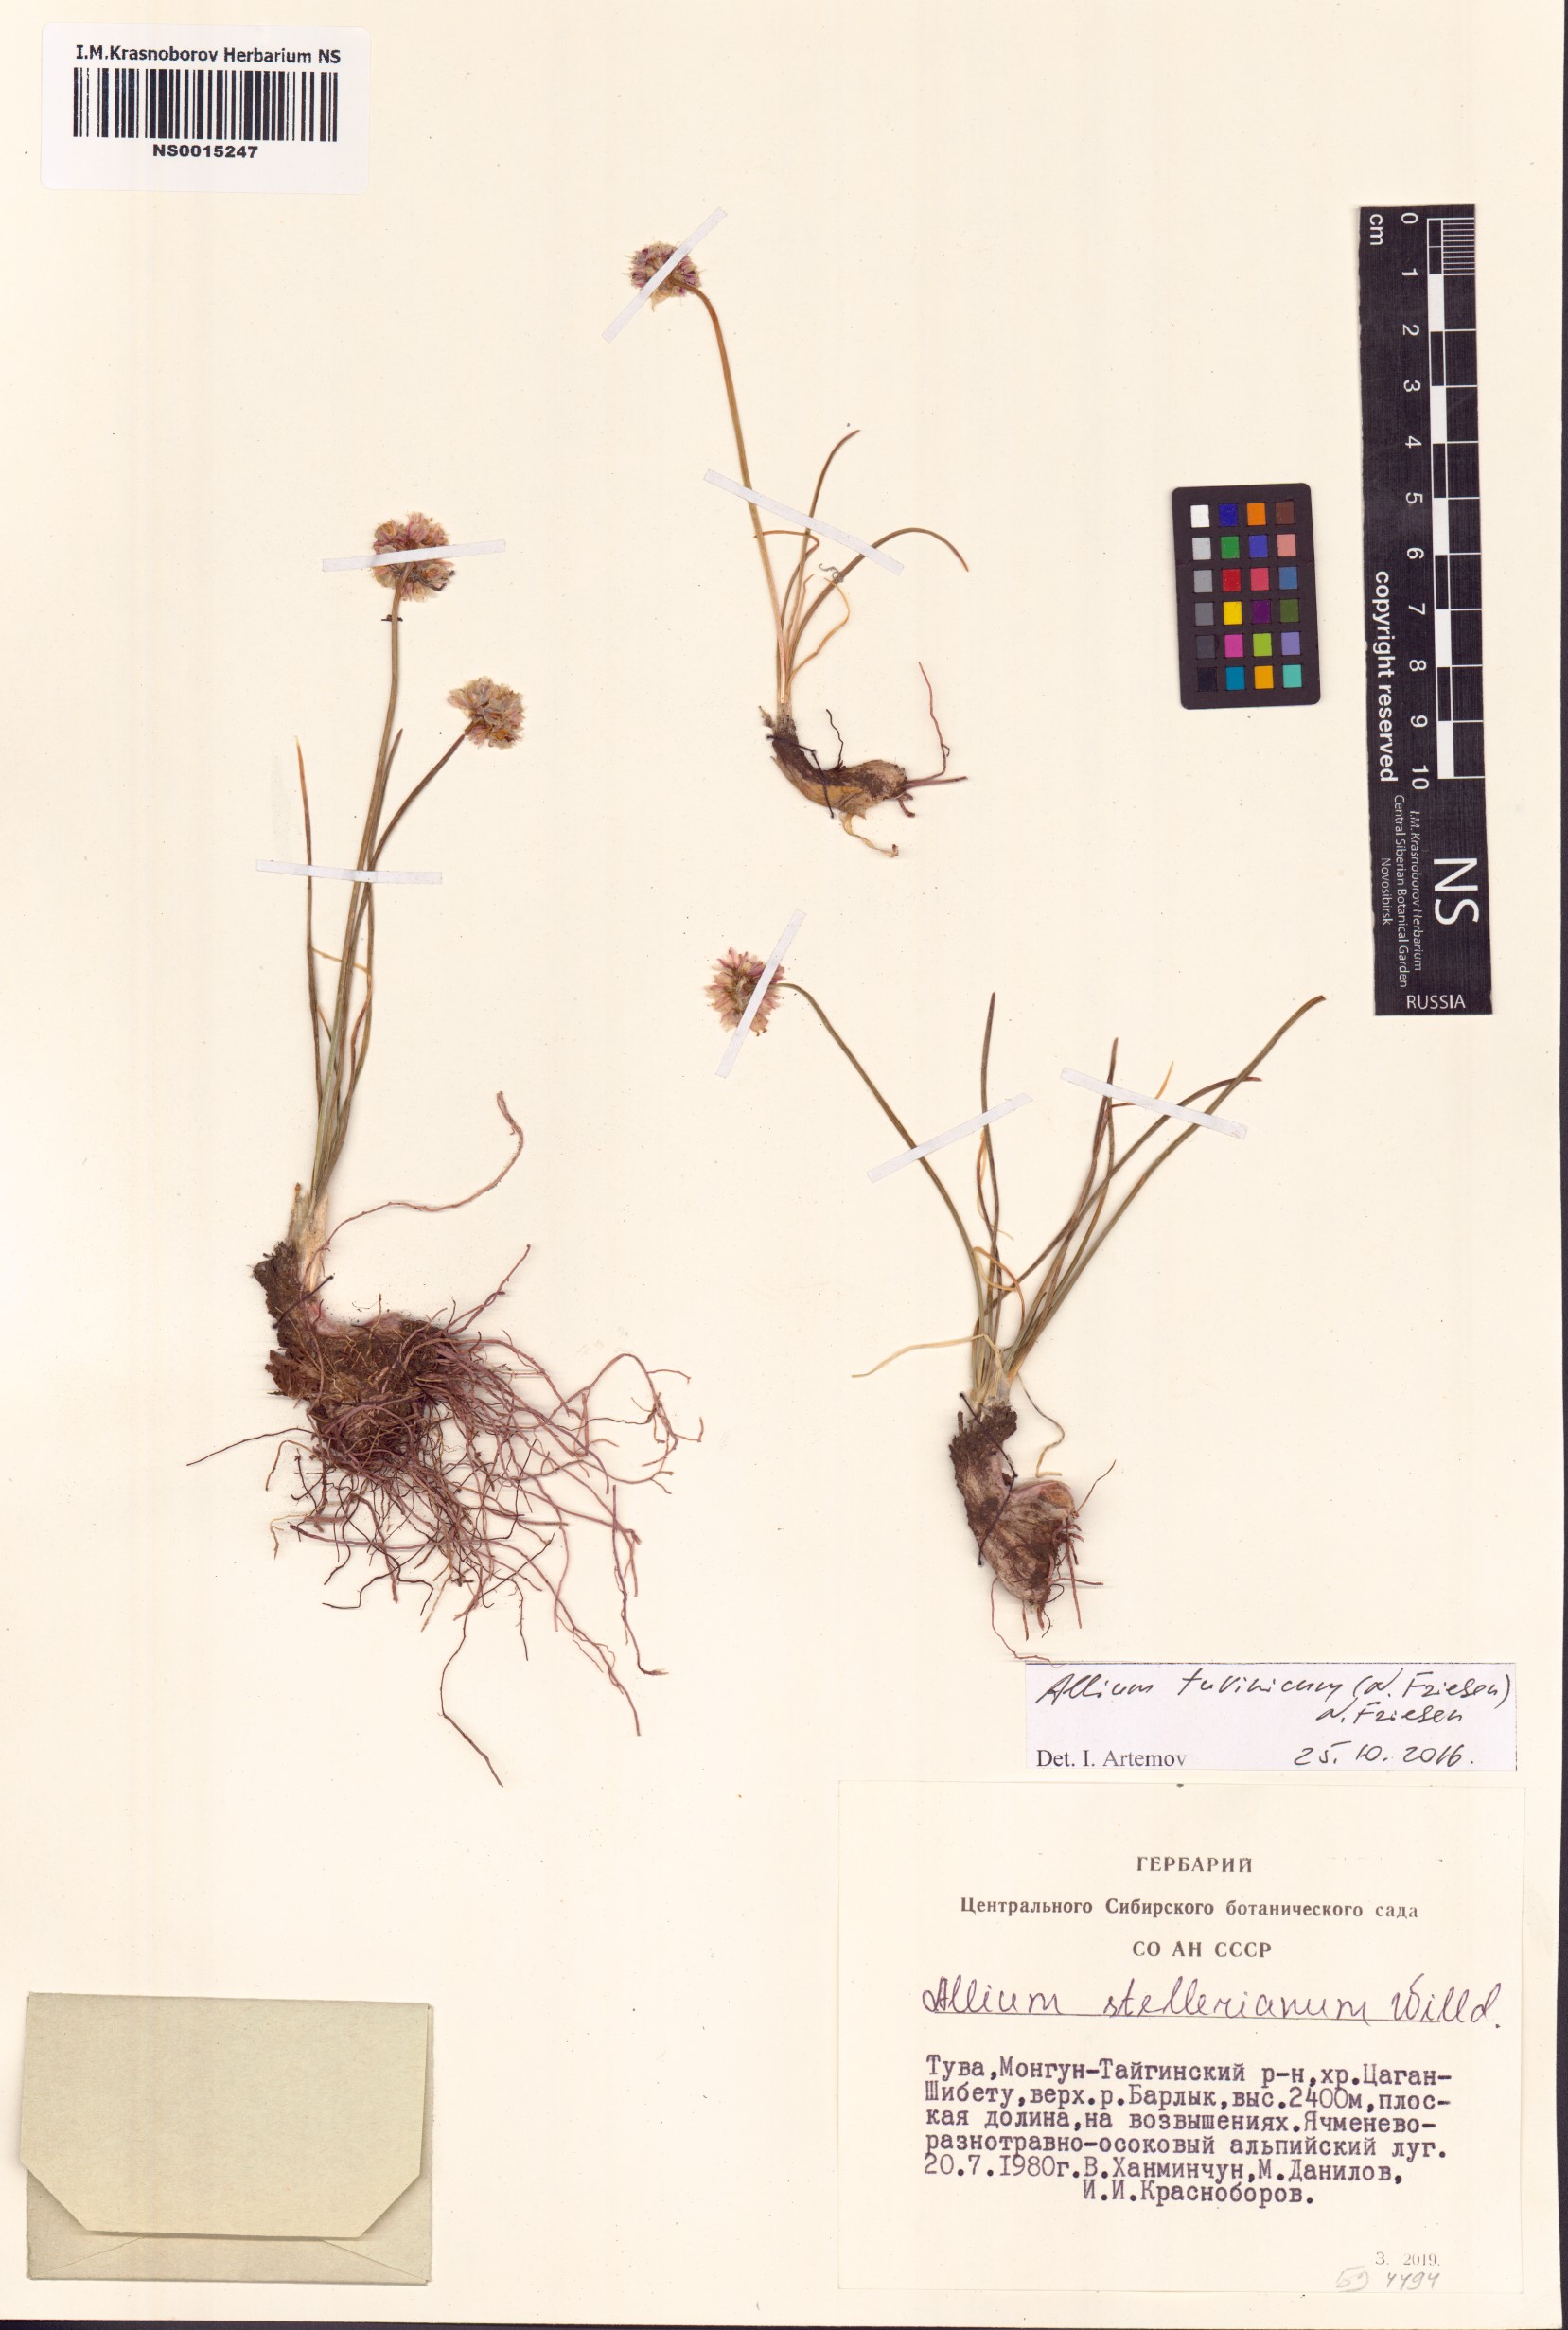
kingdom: Plantae
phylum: Tracheophyta
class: Liliopsida
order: Asparagales
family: Amaryllidaceae
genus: Allium
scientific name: Allium tuvinicum
